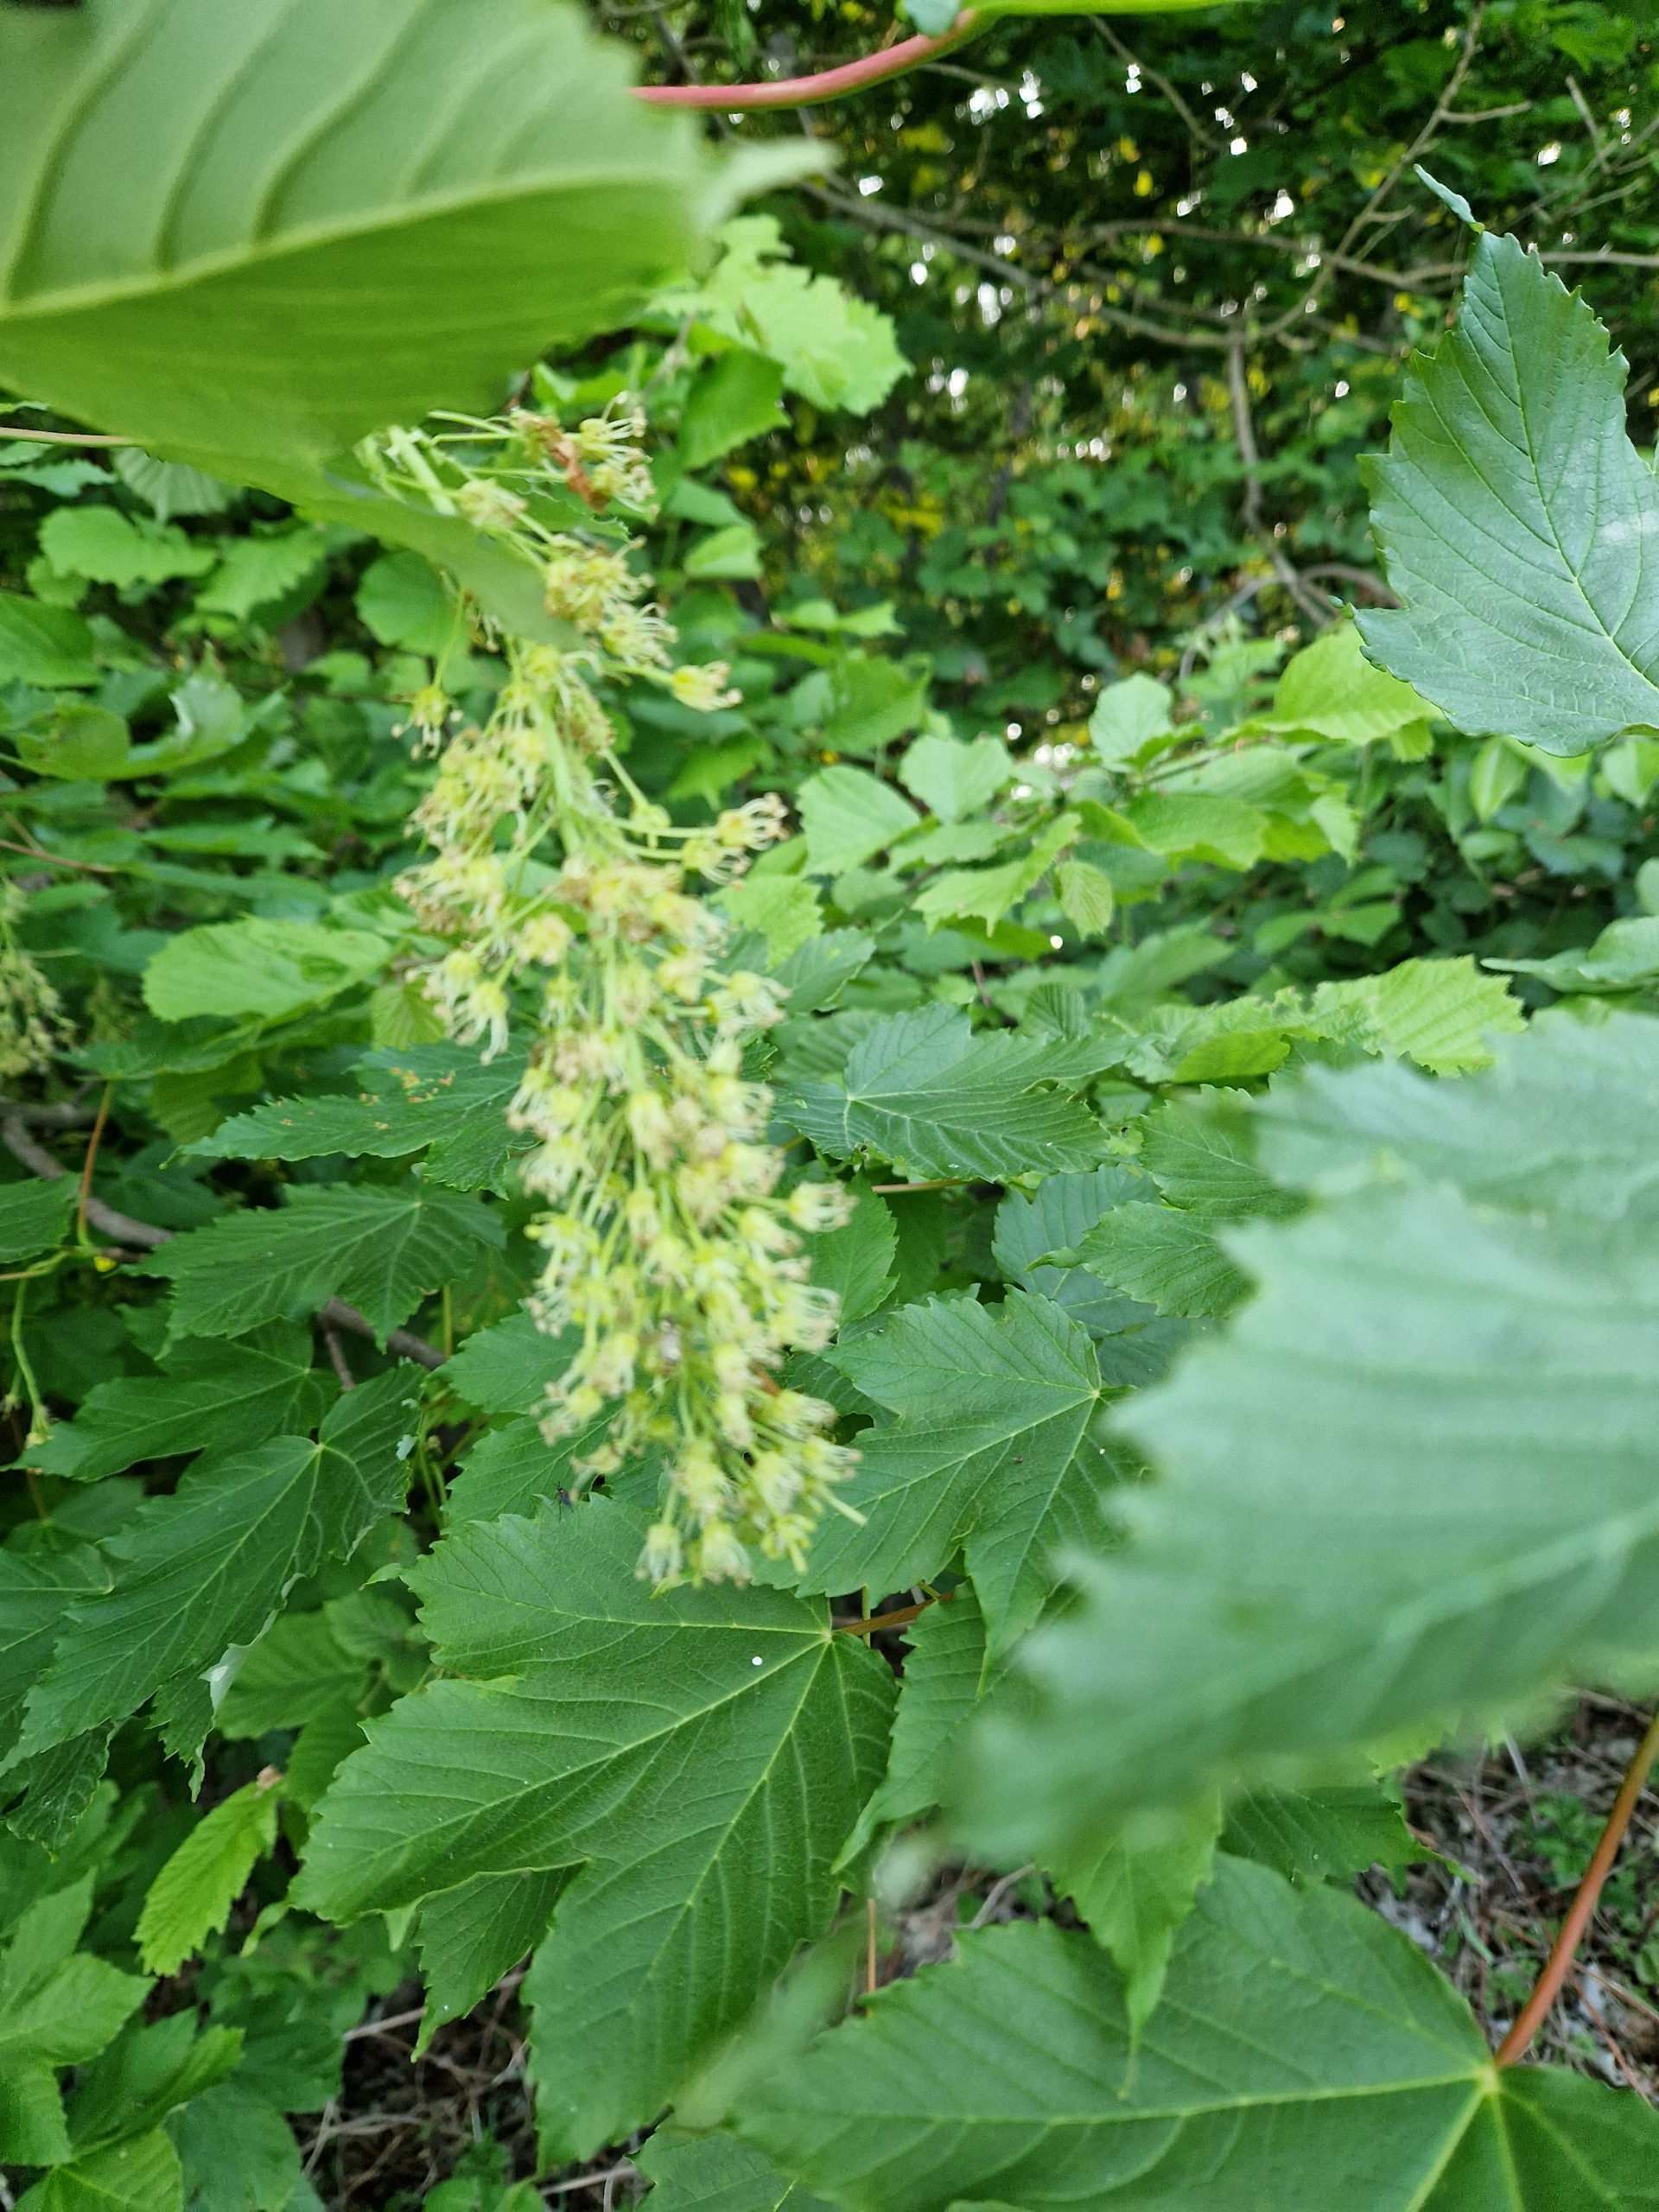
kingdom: Plantae
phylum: Tracheophyta
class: Magnoliopsida
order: Sapindales
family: Sapindaceae
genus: Acer
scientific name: Acer pseudoplatanus
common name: Ahorn
